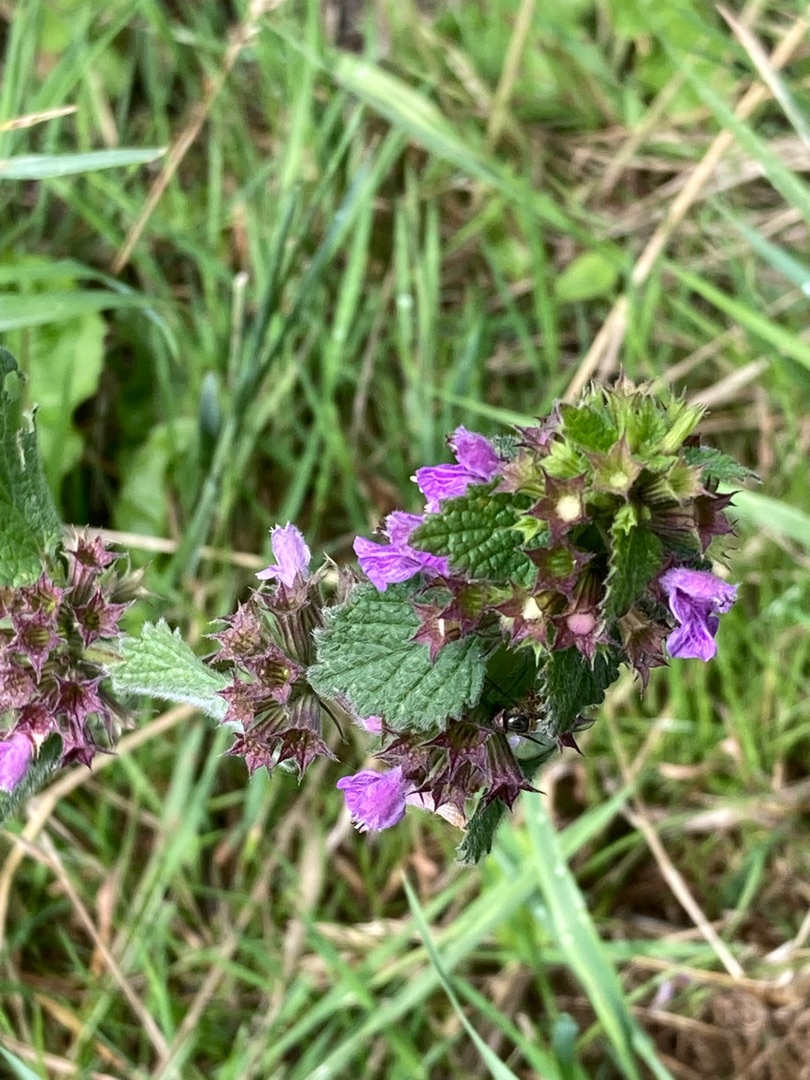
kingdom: Plantae
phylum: Tracheophyta
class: Magnoliopsida
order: Lamiales
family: Lamiaceae
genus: Ballota
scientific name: Ballota nigra
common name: Tandbæger
